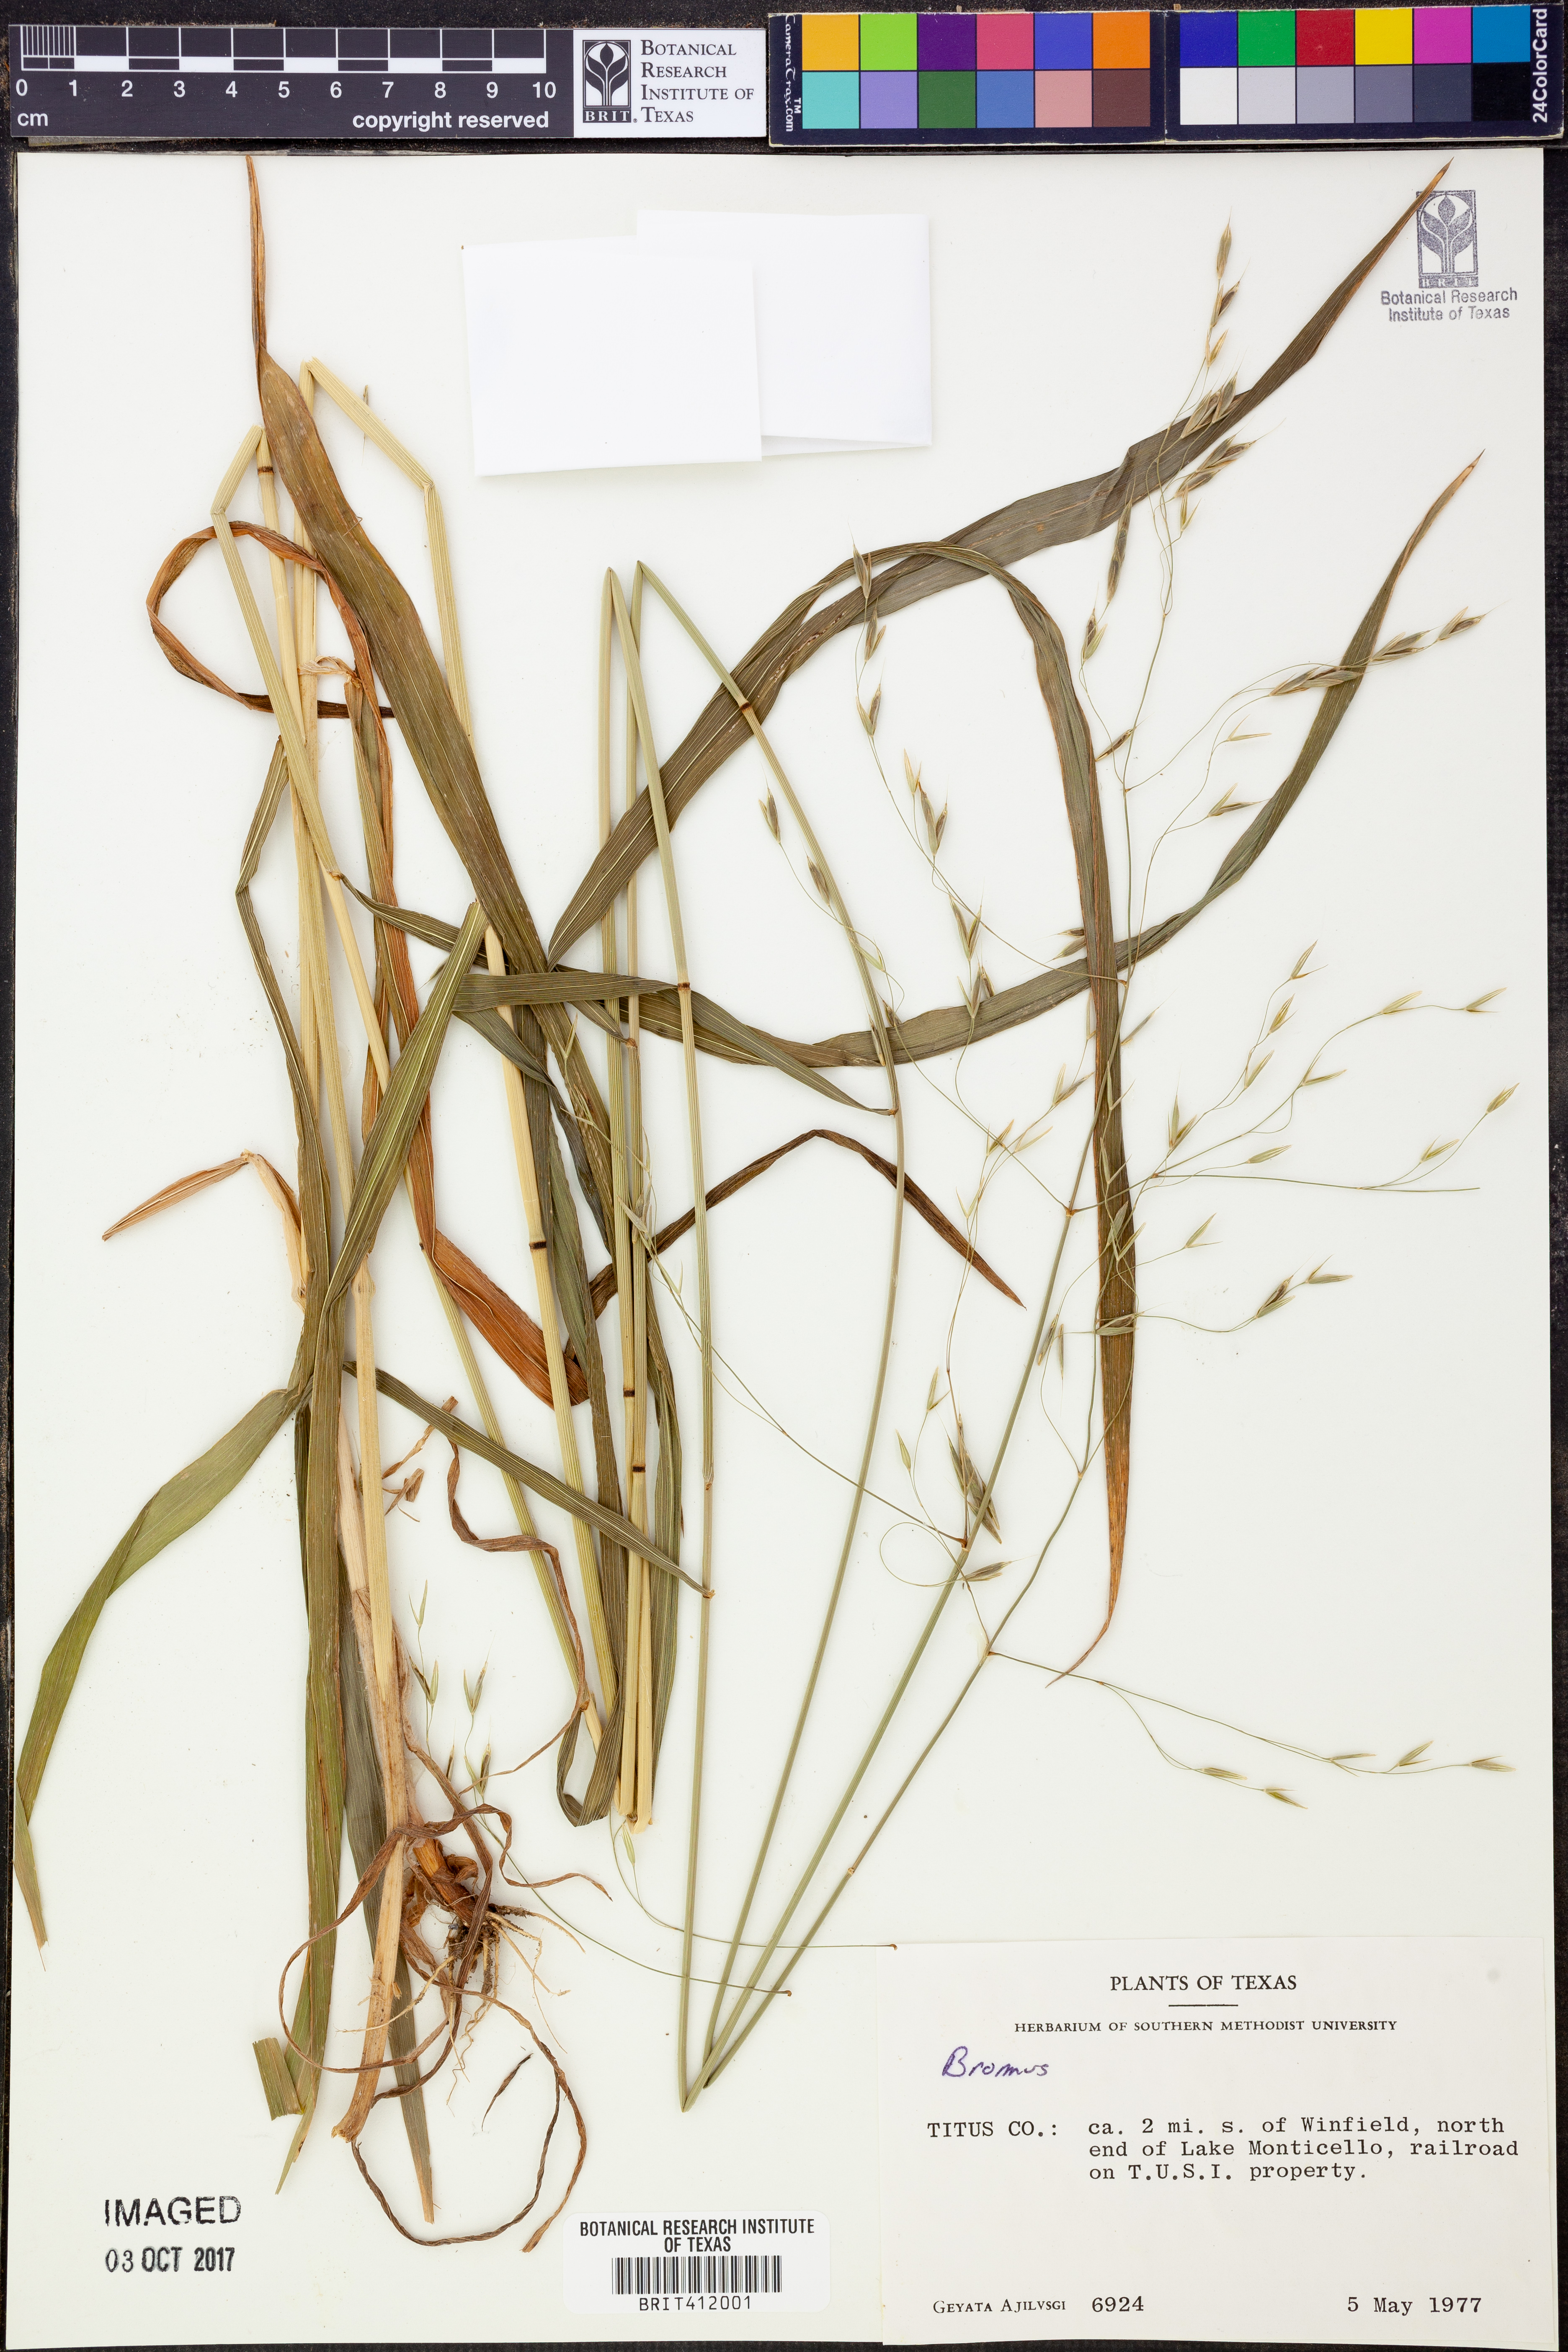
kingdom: Plantae
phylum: Tracheophyta
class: Liliopsida
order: Poales
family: Poaceae
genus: Bromus
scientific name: Bromus
